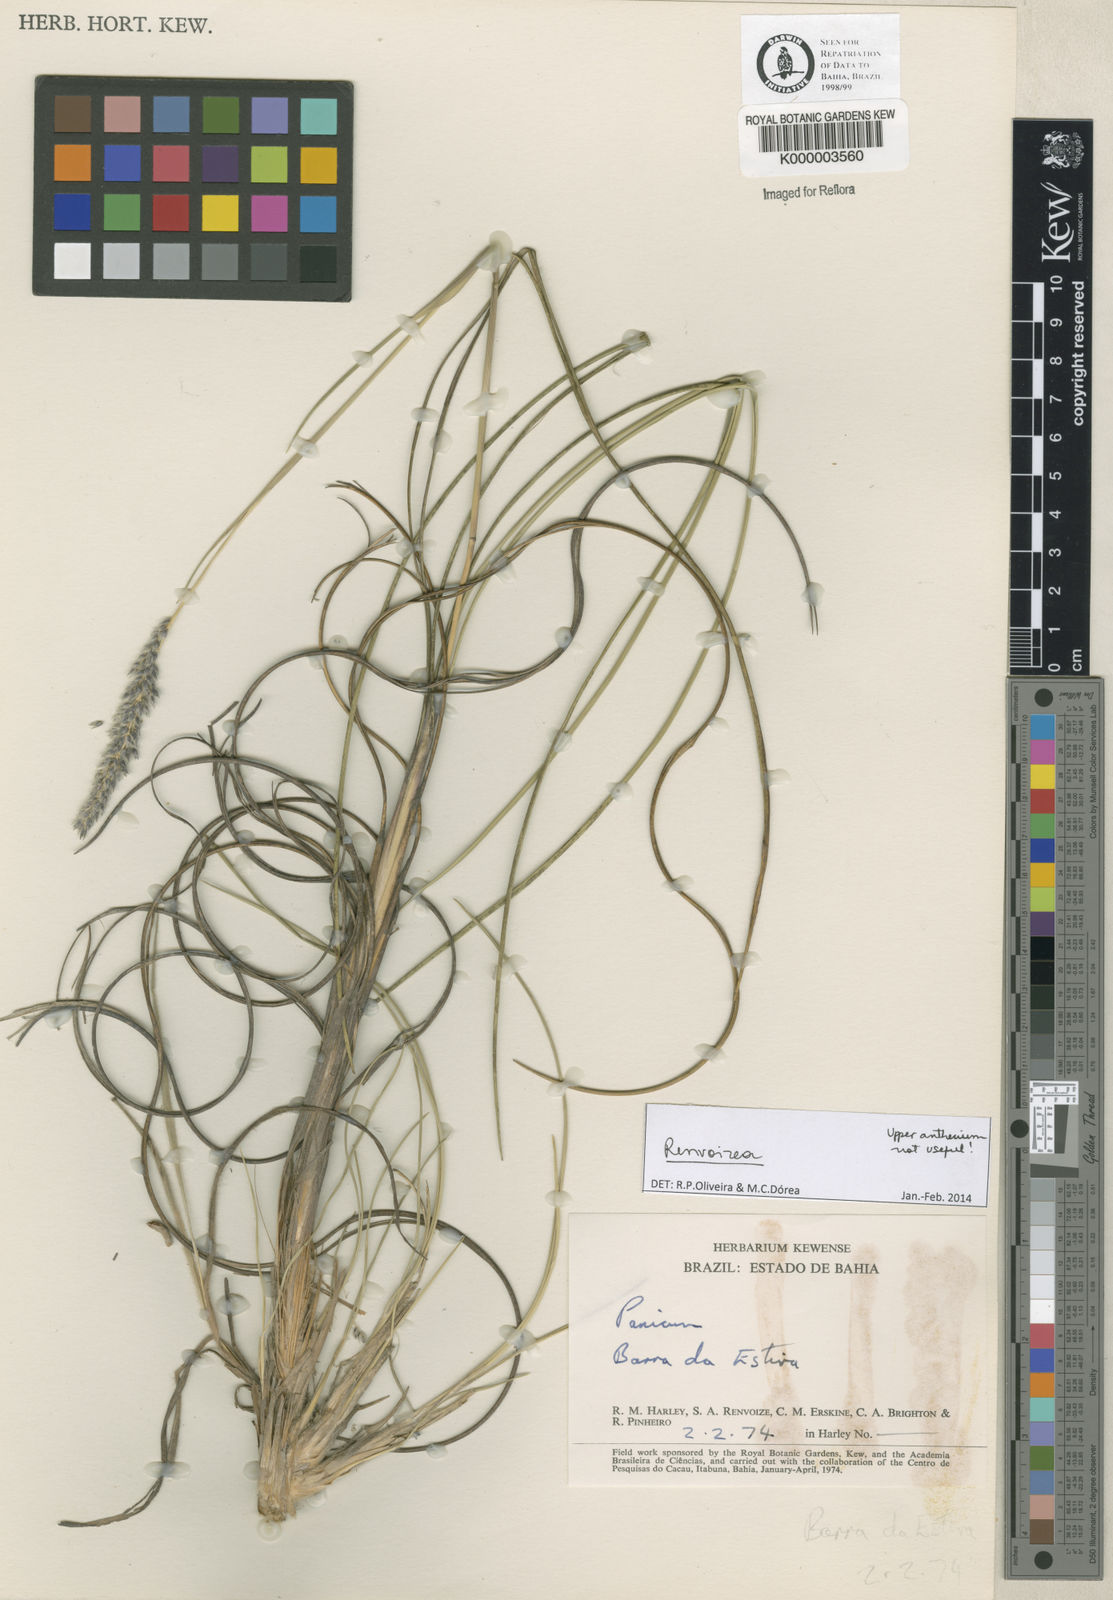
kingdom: Plantae
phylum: Tracheophyta
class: Liliopsida
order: Poales
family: Poaceae
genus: Renvoizea
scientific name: Renvoizea lagostachya
